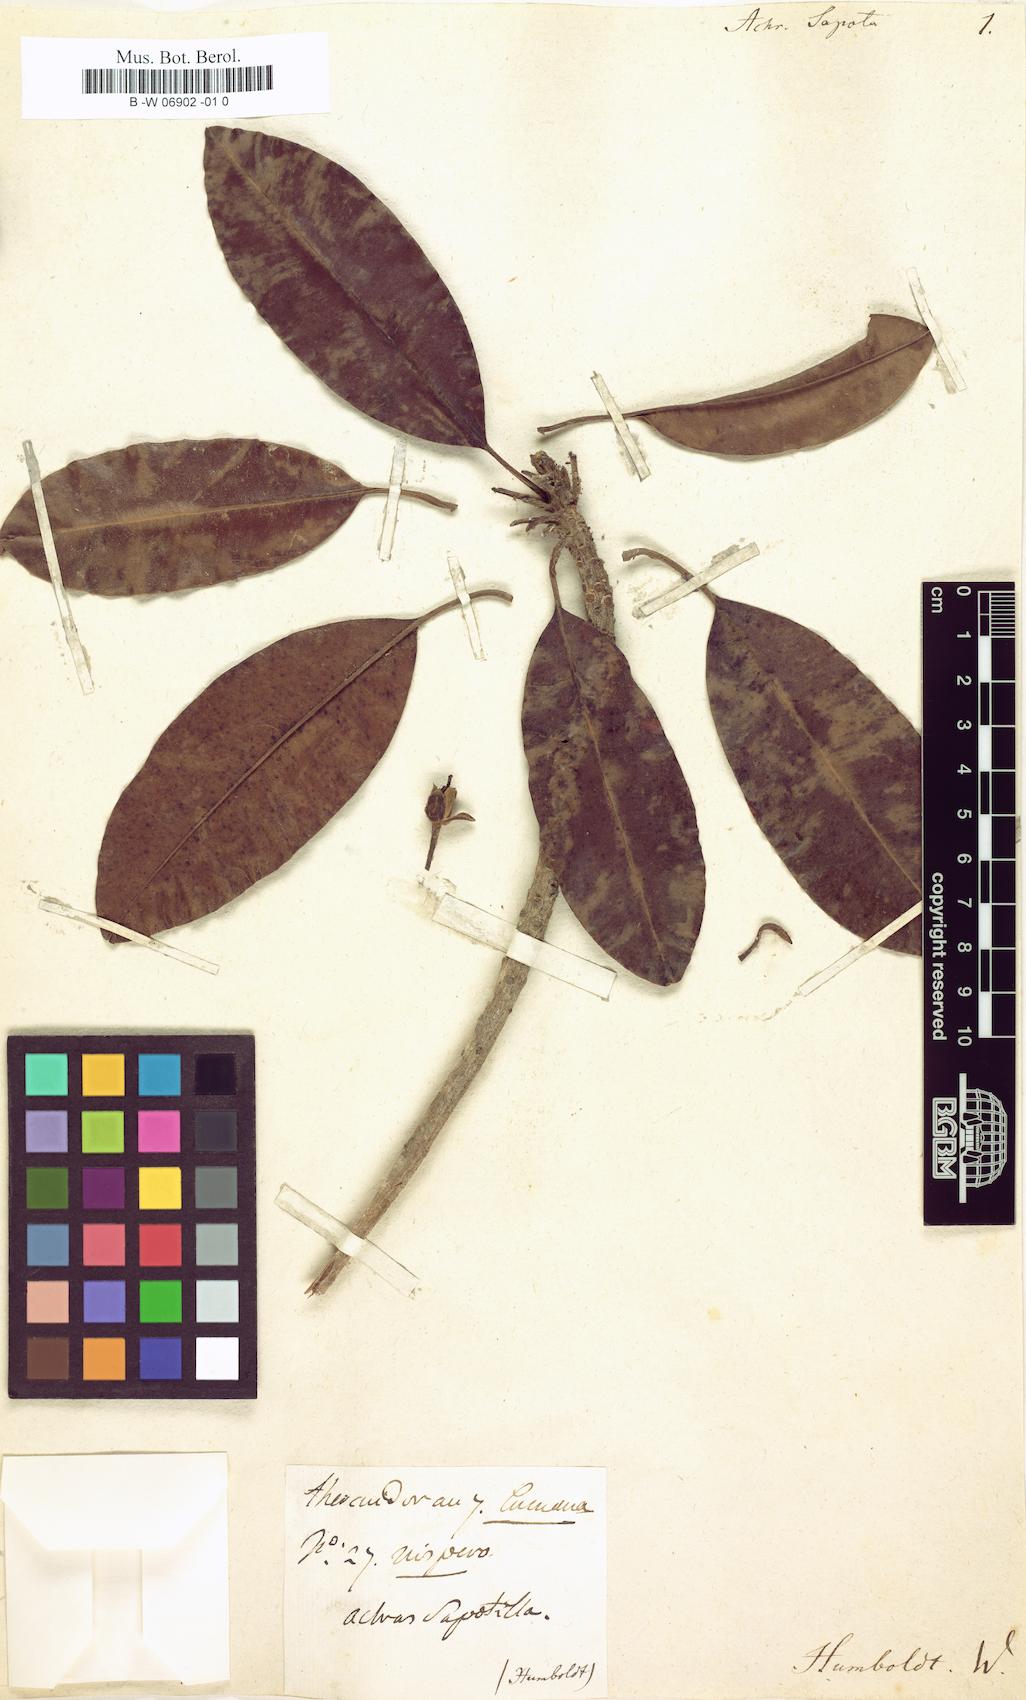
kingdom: Plantae
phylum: Tracheophyta
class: Magnoliopsida
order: Ericales
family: Sapotaceae
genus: Manilkara
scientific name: Manilkara zapota
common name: Sapodilla
